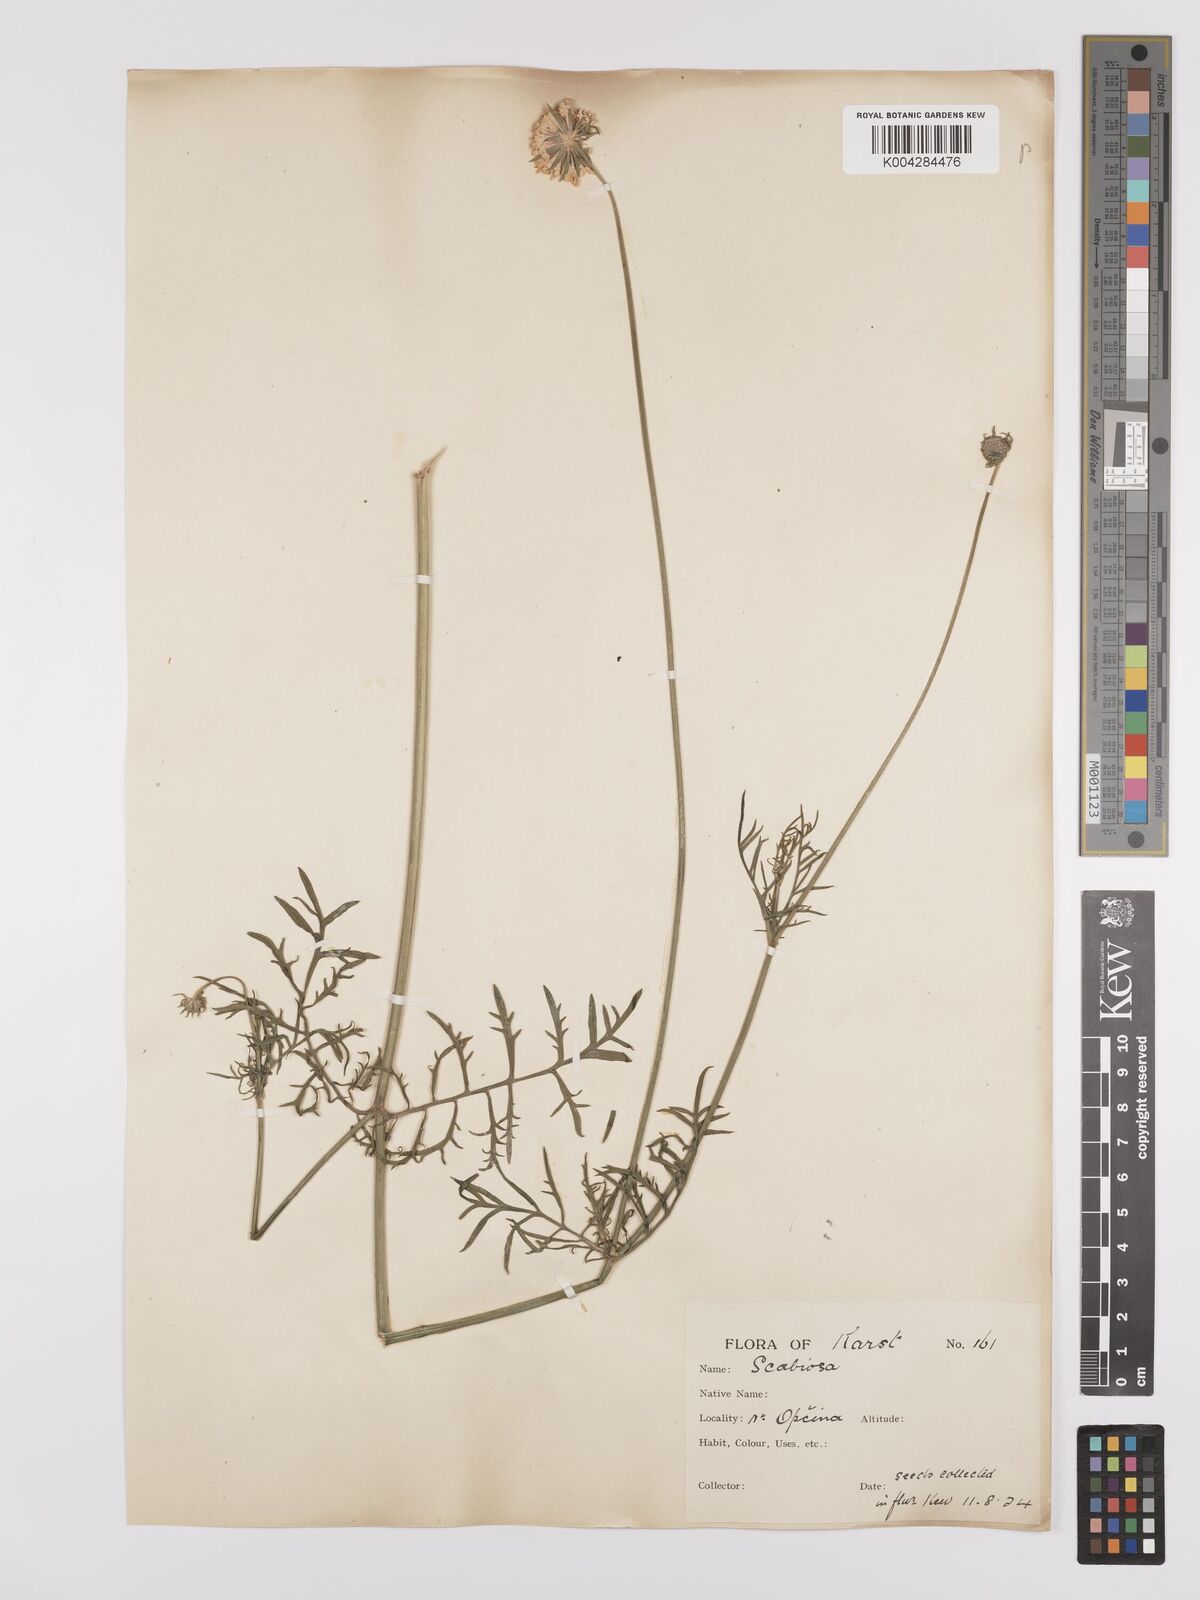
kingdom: Plantae
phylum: Tracheophyta
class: Magnoliopsida
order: Dipsacales
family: Caprifoliaceae
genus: Sixalix
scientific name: Sixalix maritima
